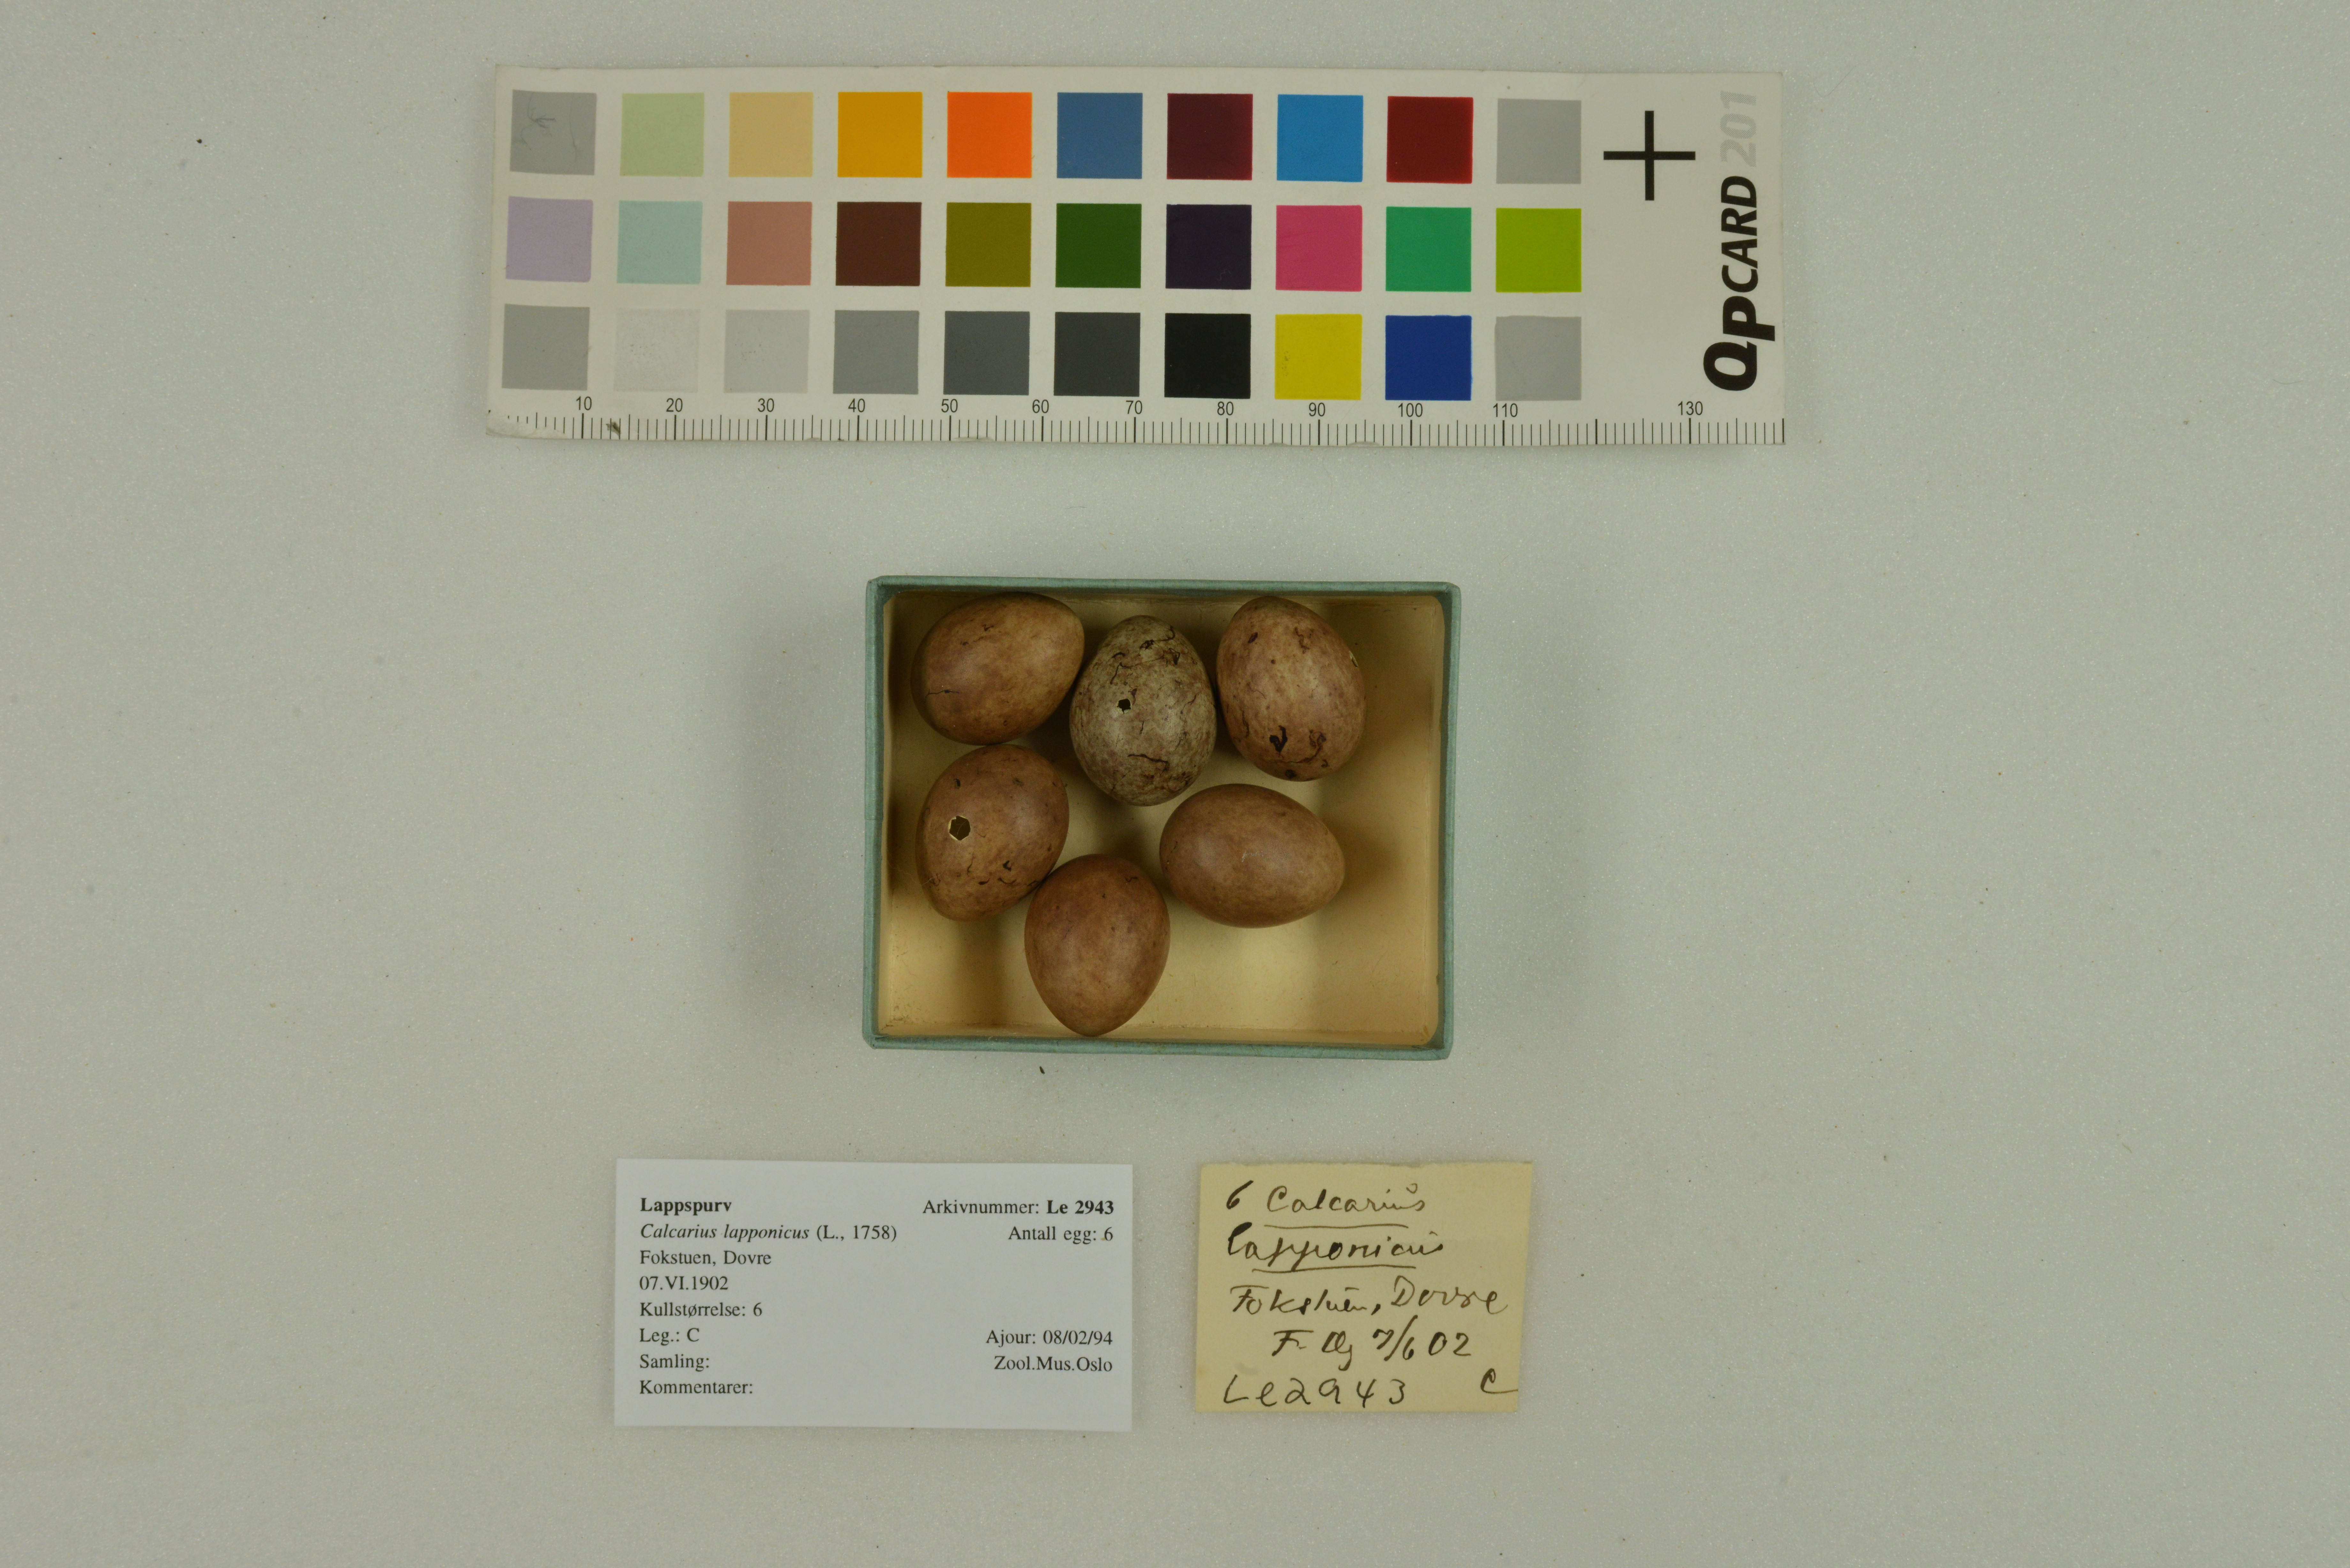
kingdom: Animalia
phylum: Chordata
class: Aves
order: Passeriformes
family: Calcariidae
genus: Calcarius
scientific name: Calcarius lapponicus
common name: Lapland longspur
